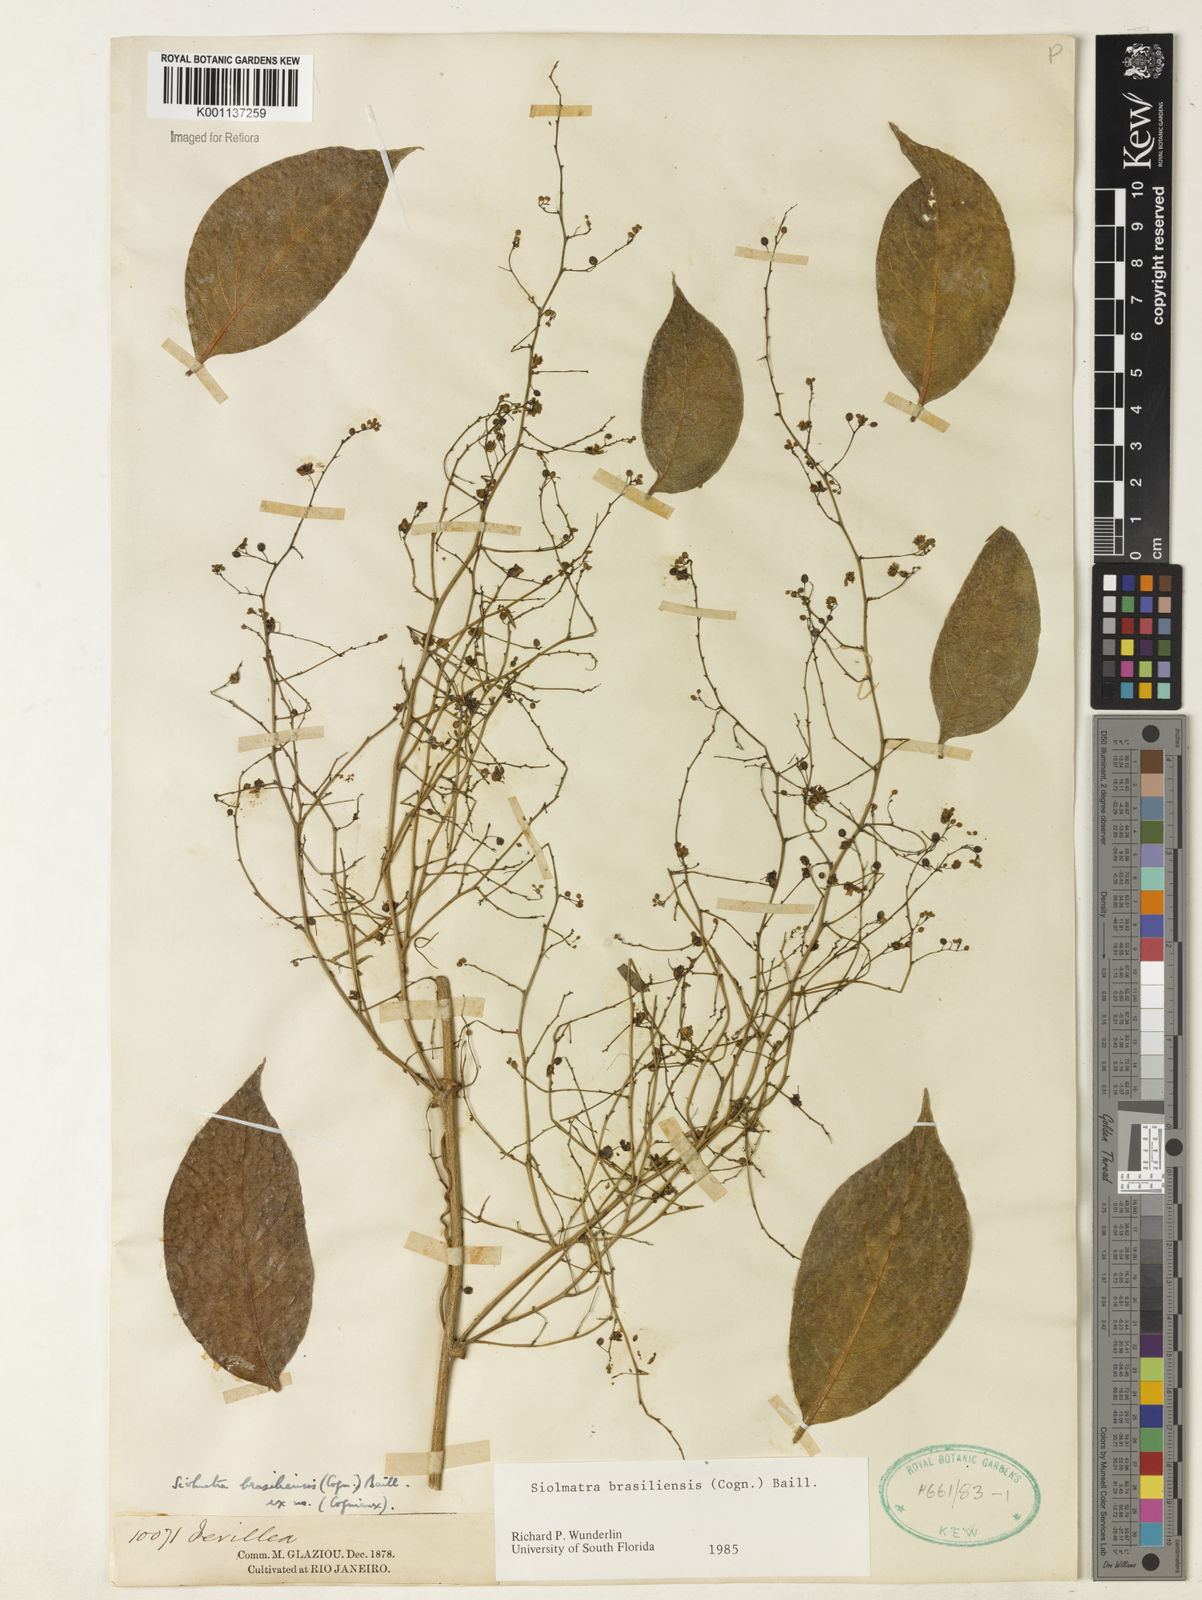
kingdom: Plantae
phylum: Tracheophyta
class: Magnoliopsida
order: Cucurbitales
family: Cucurbitaceae
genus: Siolmatra
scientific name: Siolmatra brasiliensis
